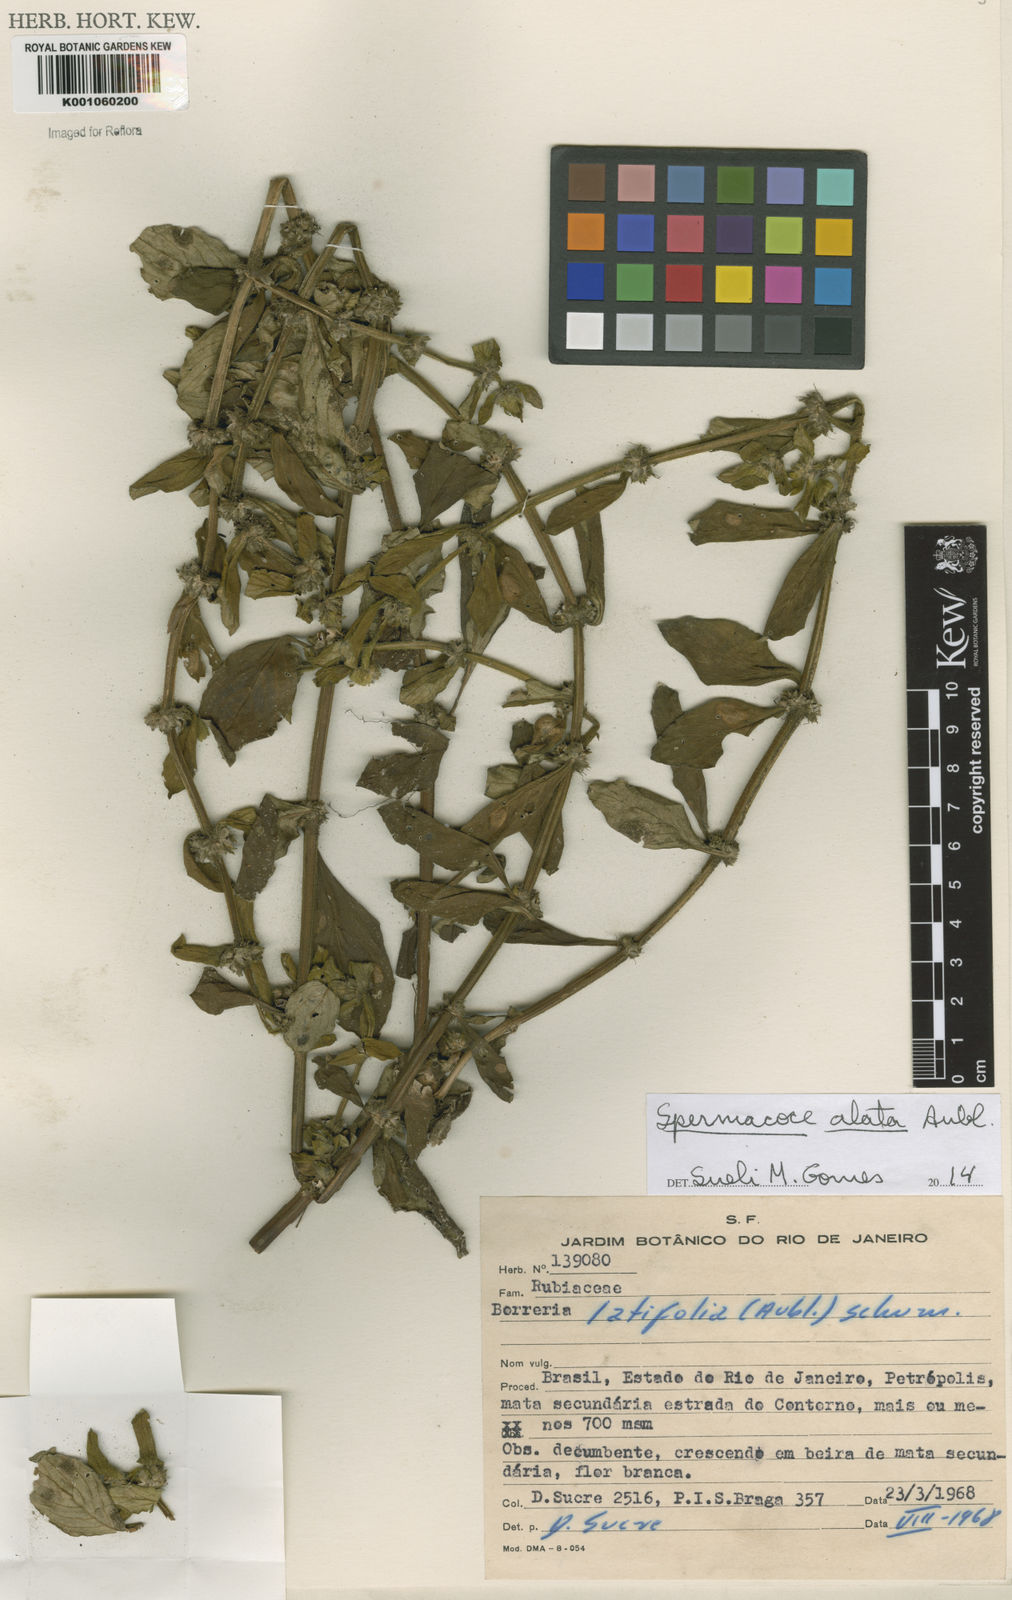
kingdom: Plantae
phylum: Tracheophyta
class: Magnoliopsida
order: Gentianales
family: Rubiaceae
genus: Spermacoce
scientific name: Spermacoce
